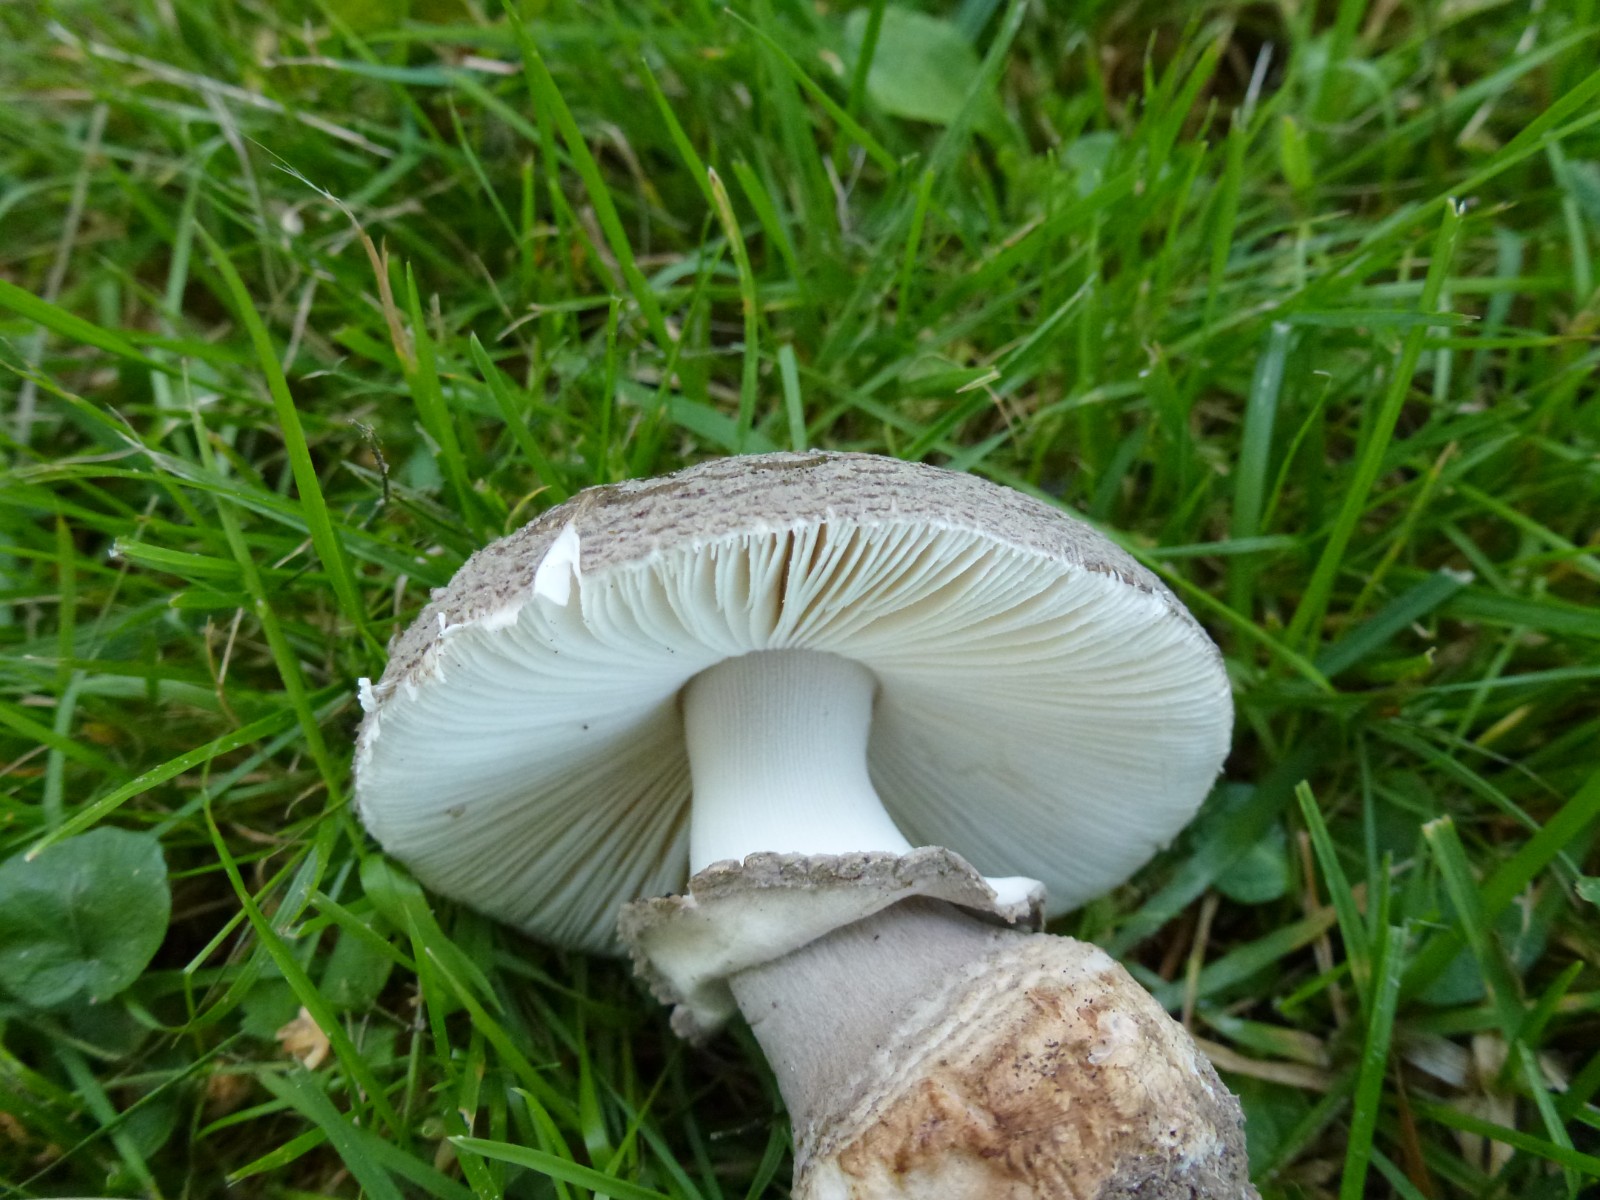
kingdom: Fungi
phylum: Basidiomycota
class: Agaricomycetes
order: Agaricales
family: Amanitaceae
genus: Amanita
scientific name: Amanita
